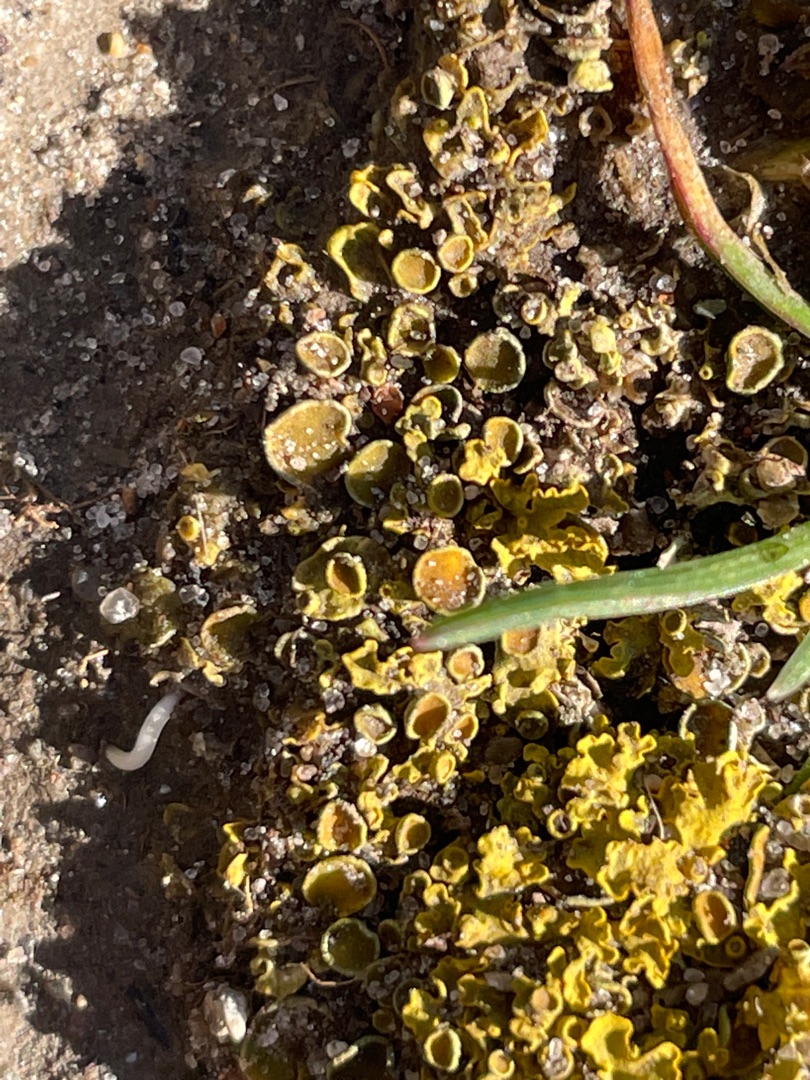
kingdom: Fungi
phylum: Ascomycota
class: Lecanoromycetes
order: Teloschistales
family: Teloschistaceae
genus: Xanthoria
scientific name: Xanthoria parietina
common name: Almindelig væggelav
